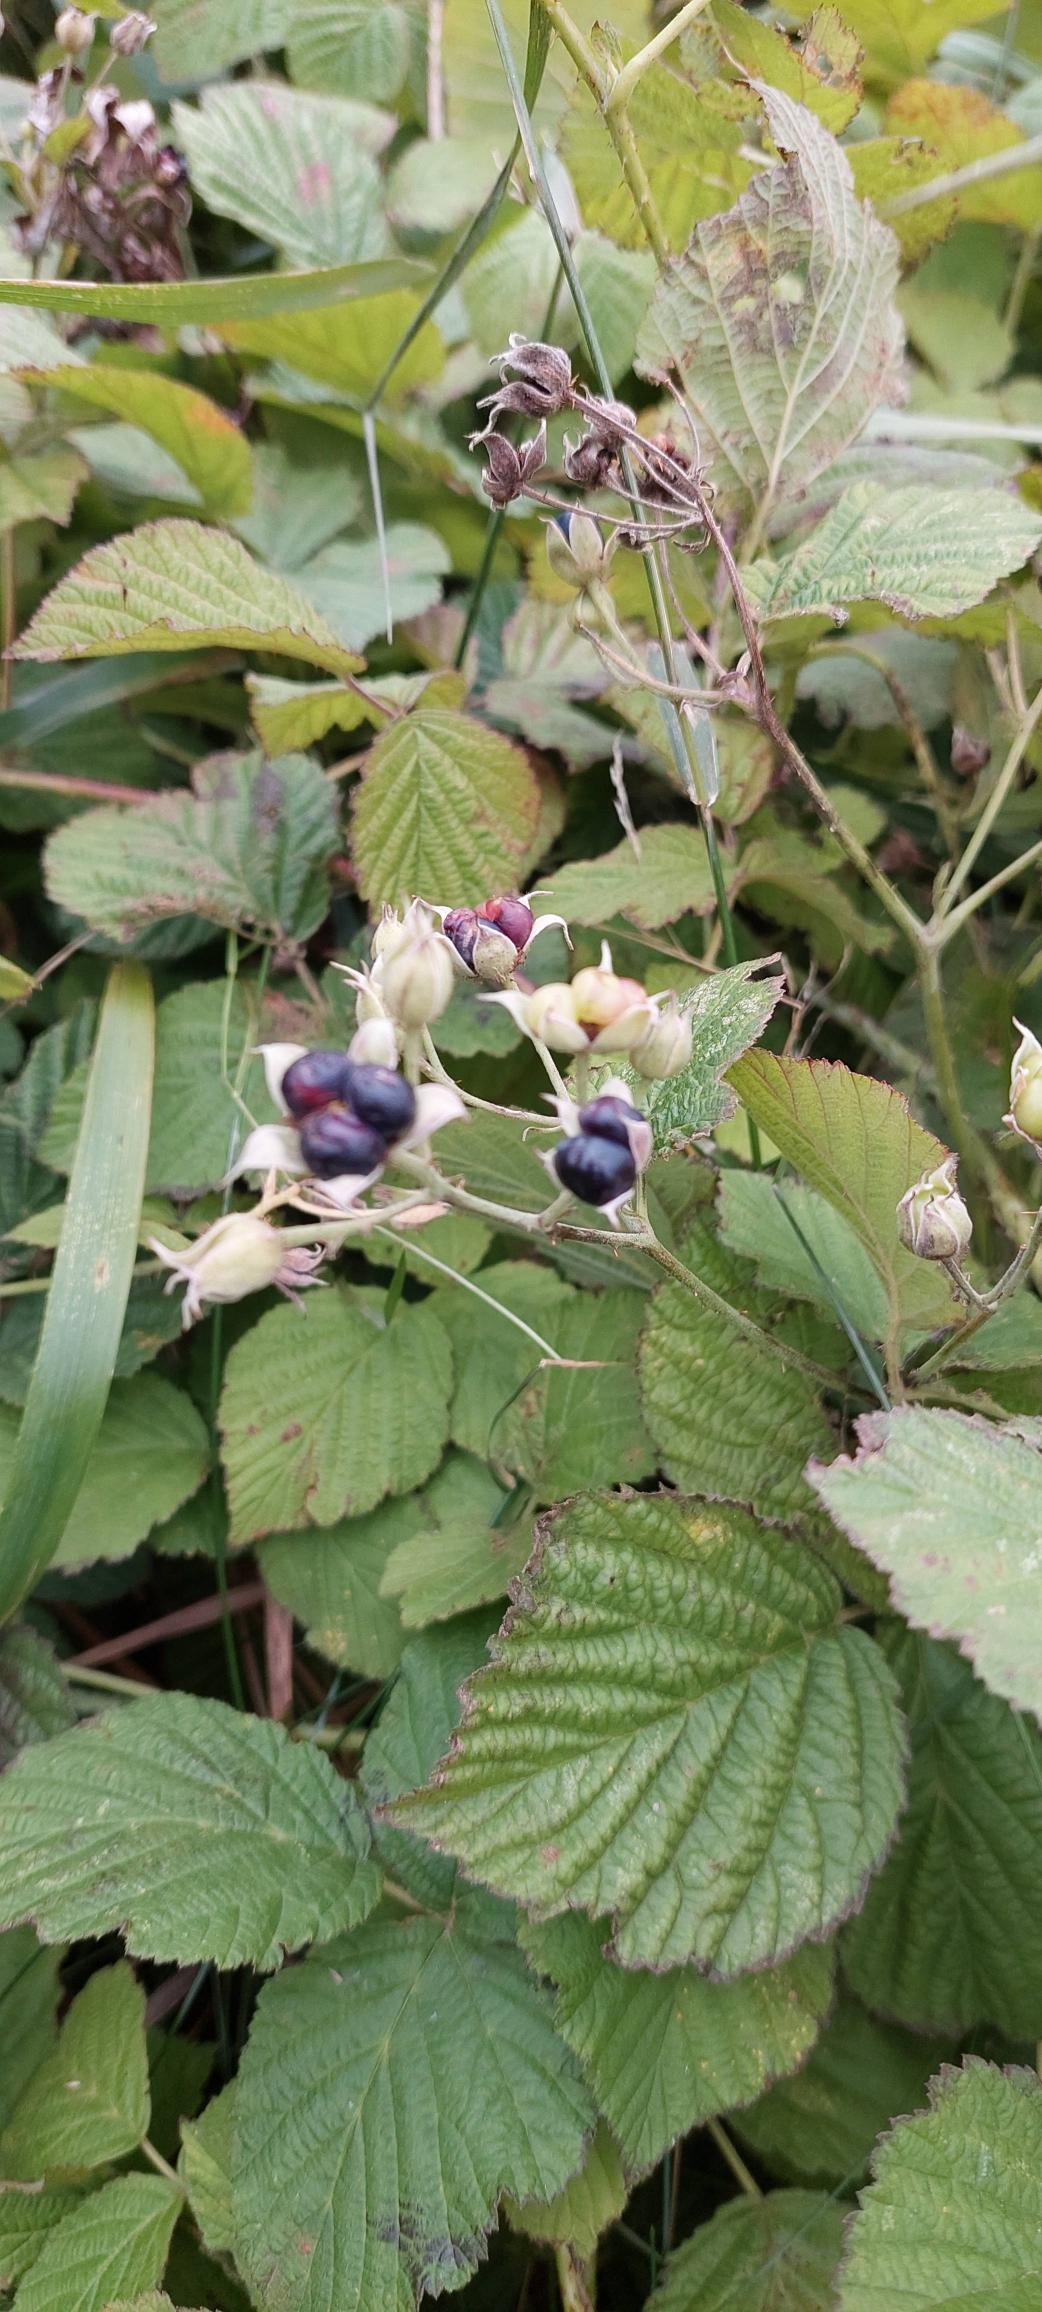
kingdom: Plantae
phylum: Tracheophyta
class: Magnoliopsida
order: Rosales
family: Rosaceae
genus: Rubus
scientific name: Rubus caesius
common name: Korbær
